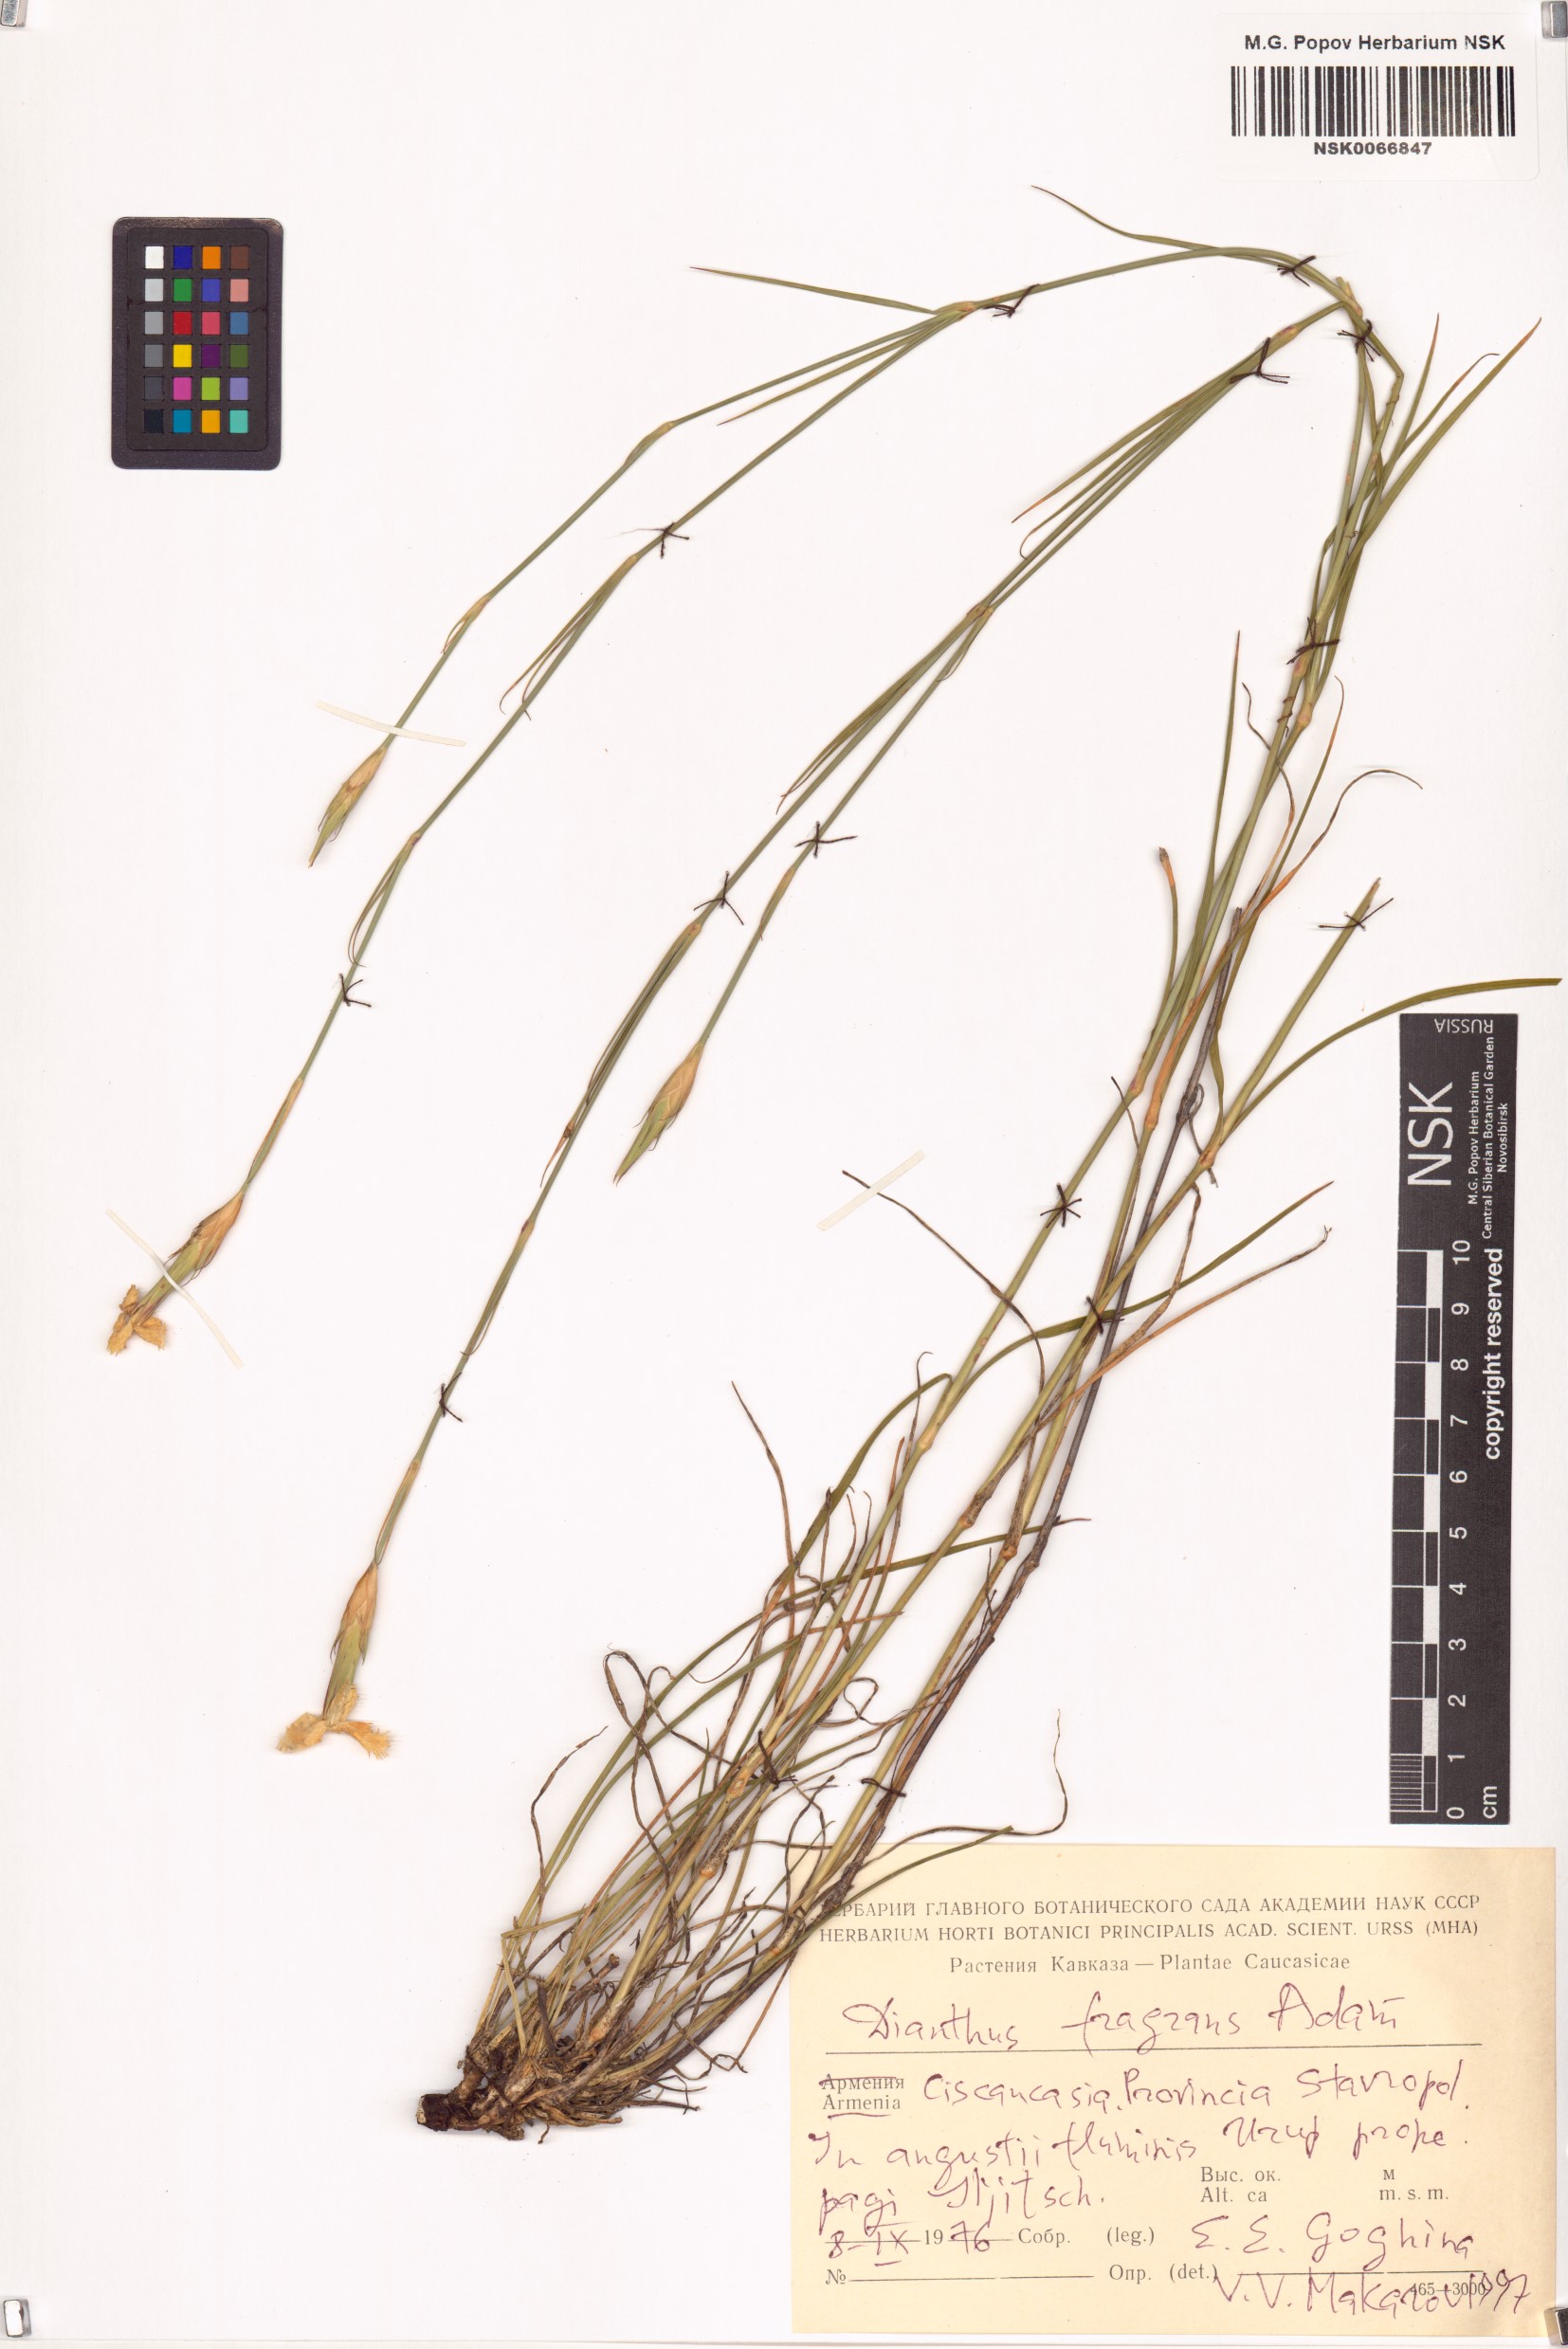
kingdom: Plantae
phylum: Tracheophyta
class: Magnoliopsida
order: Caryophyllales
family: Caryophyllaceae
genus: Dianthus
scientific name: Dianthus fragrans
